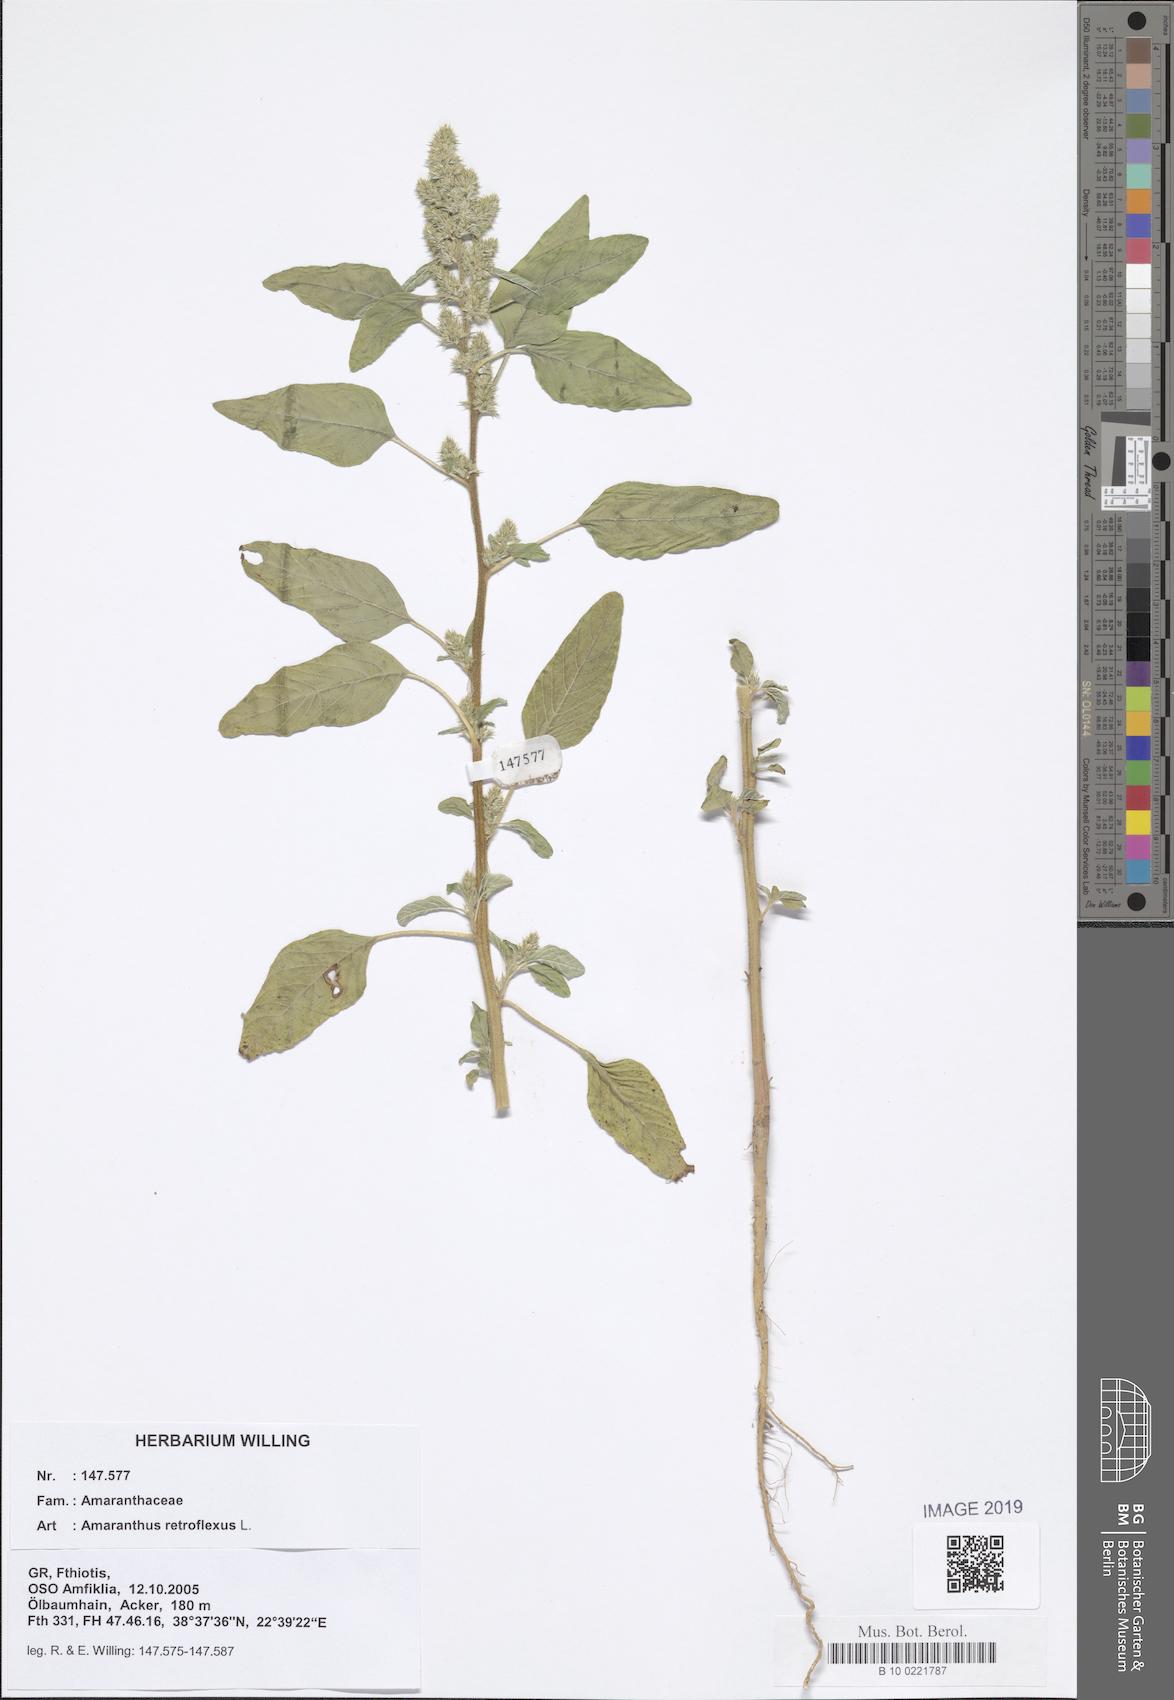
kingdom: Plantae
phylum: Tracheophyta
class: Magnoliopsida
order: Caryophyllales
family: Amaranthaceae
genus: Amaranthus
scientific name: Amaranthus retroflexus
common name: Redroot amaranth
